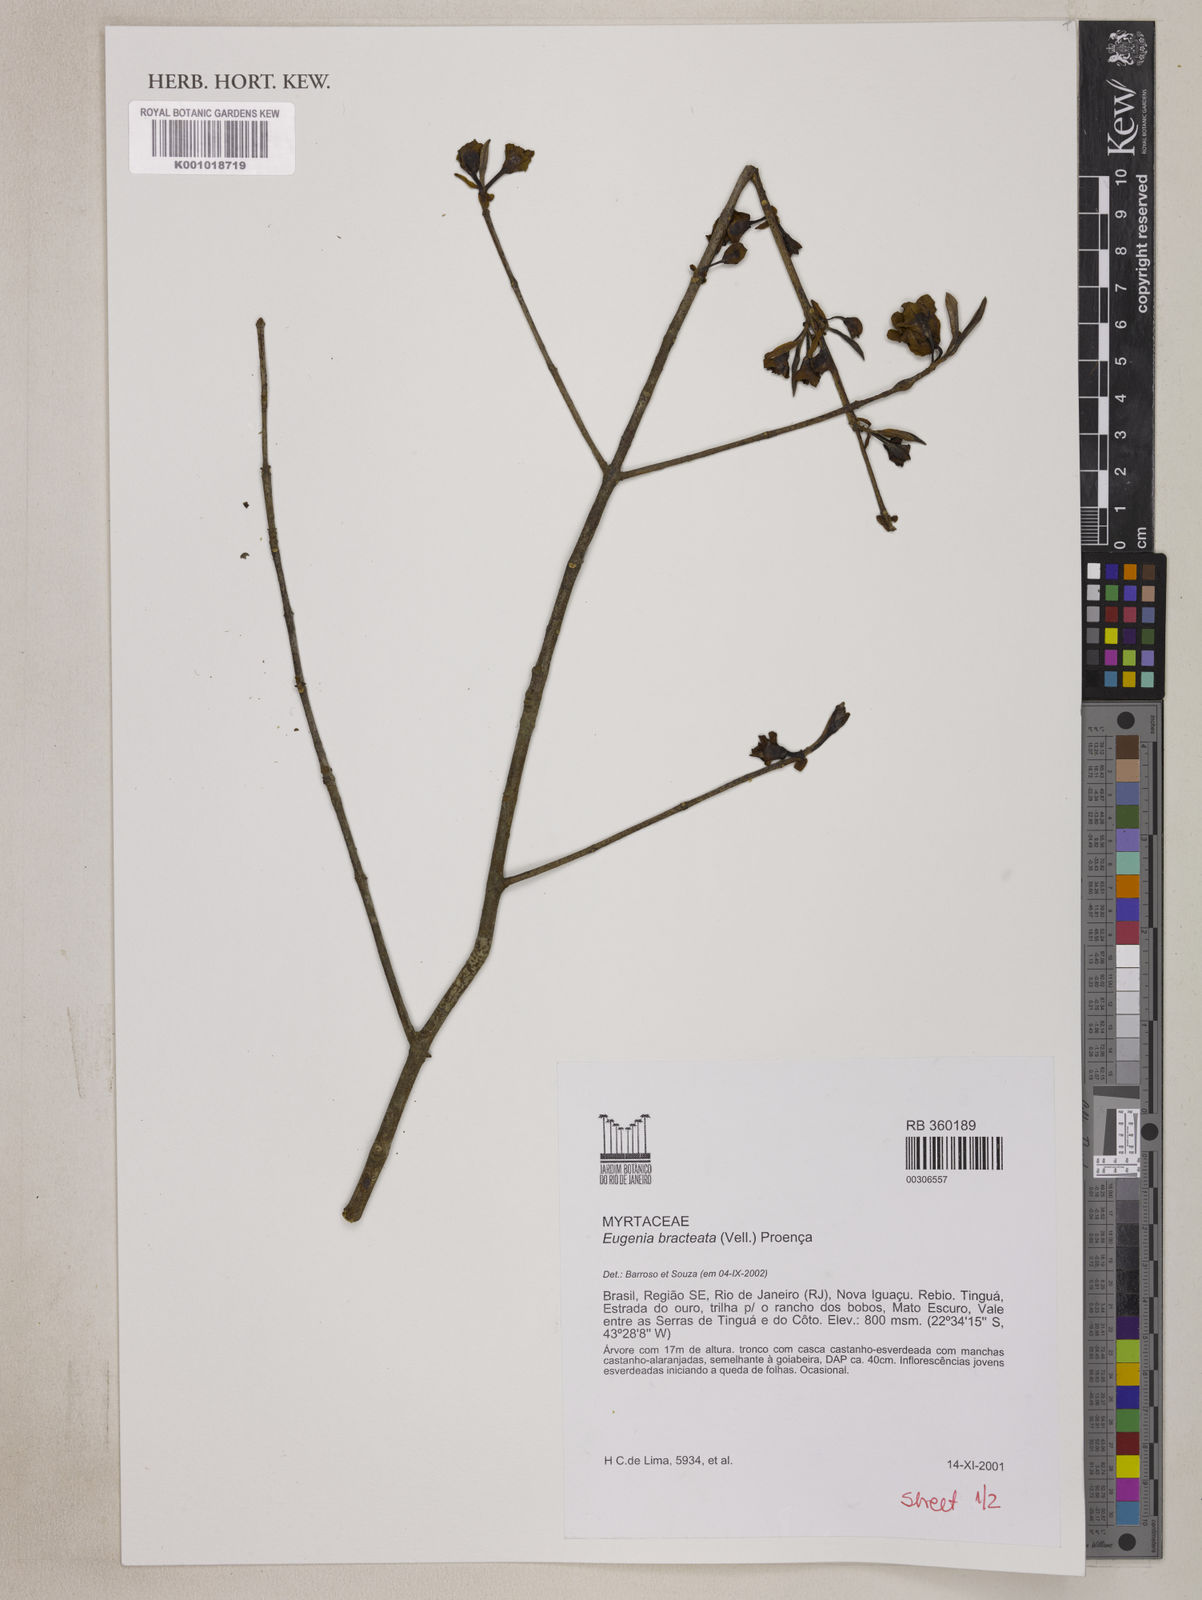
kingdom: Plantae
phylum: Tracheophyta
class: Magnoliopsida
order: Myrtales
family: Myrtaceae
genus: Eugenia
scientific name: Eugenia involucrata
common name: Cherry-of-the-rio grande
